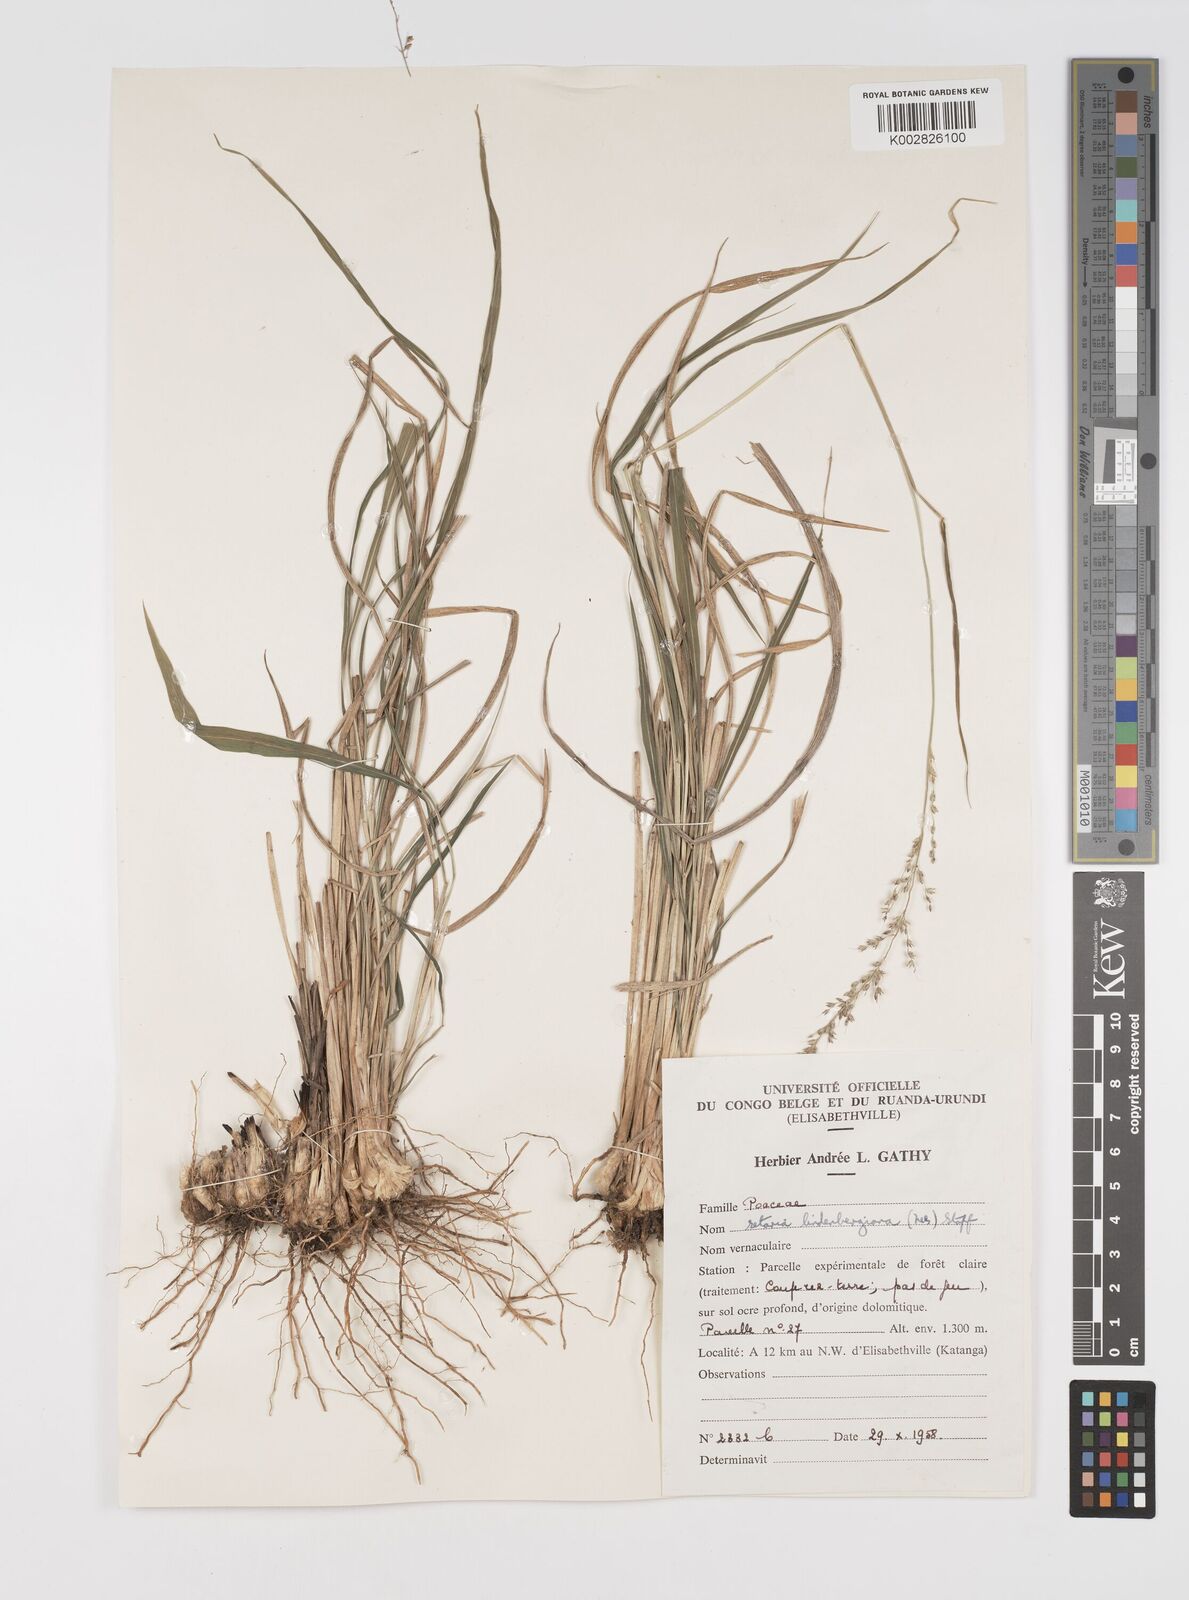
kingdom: Plantae
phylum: Tracheophyta
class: Liliopsida
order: Poales
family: Poaceae
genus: Setaria
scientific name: Setaria lindenbergiana
